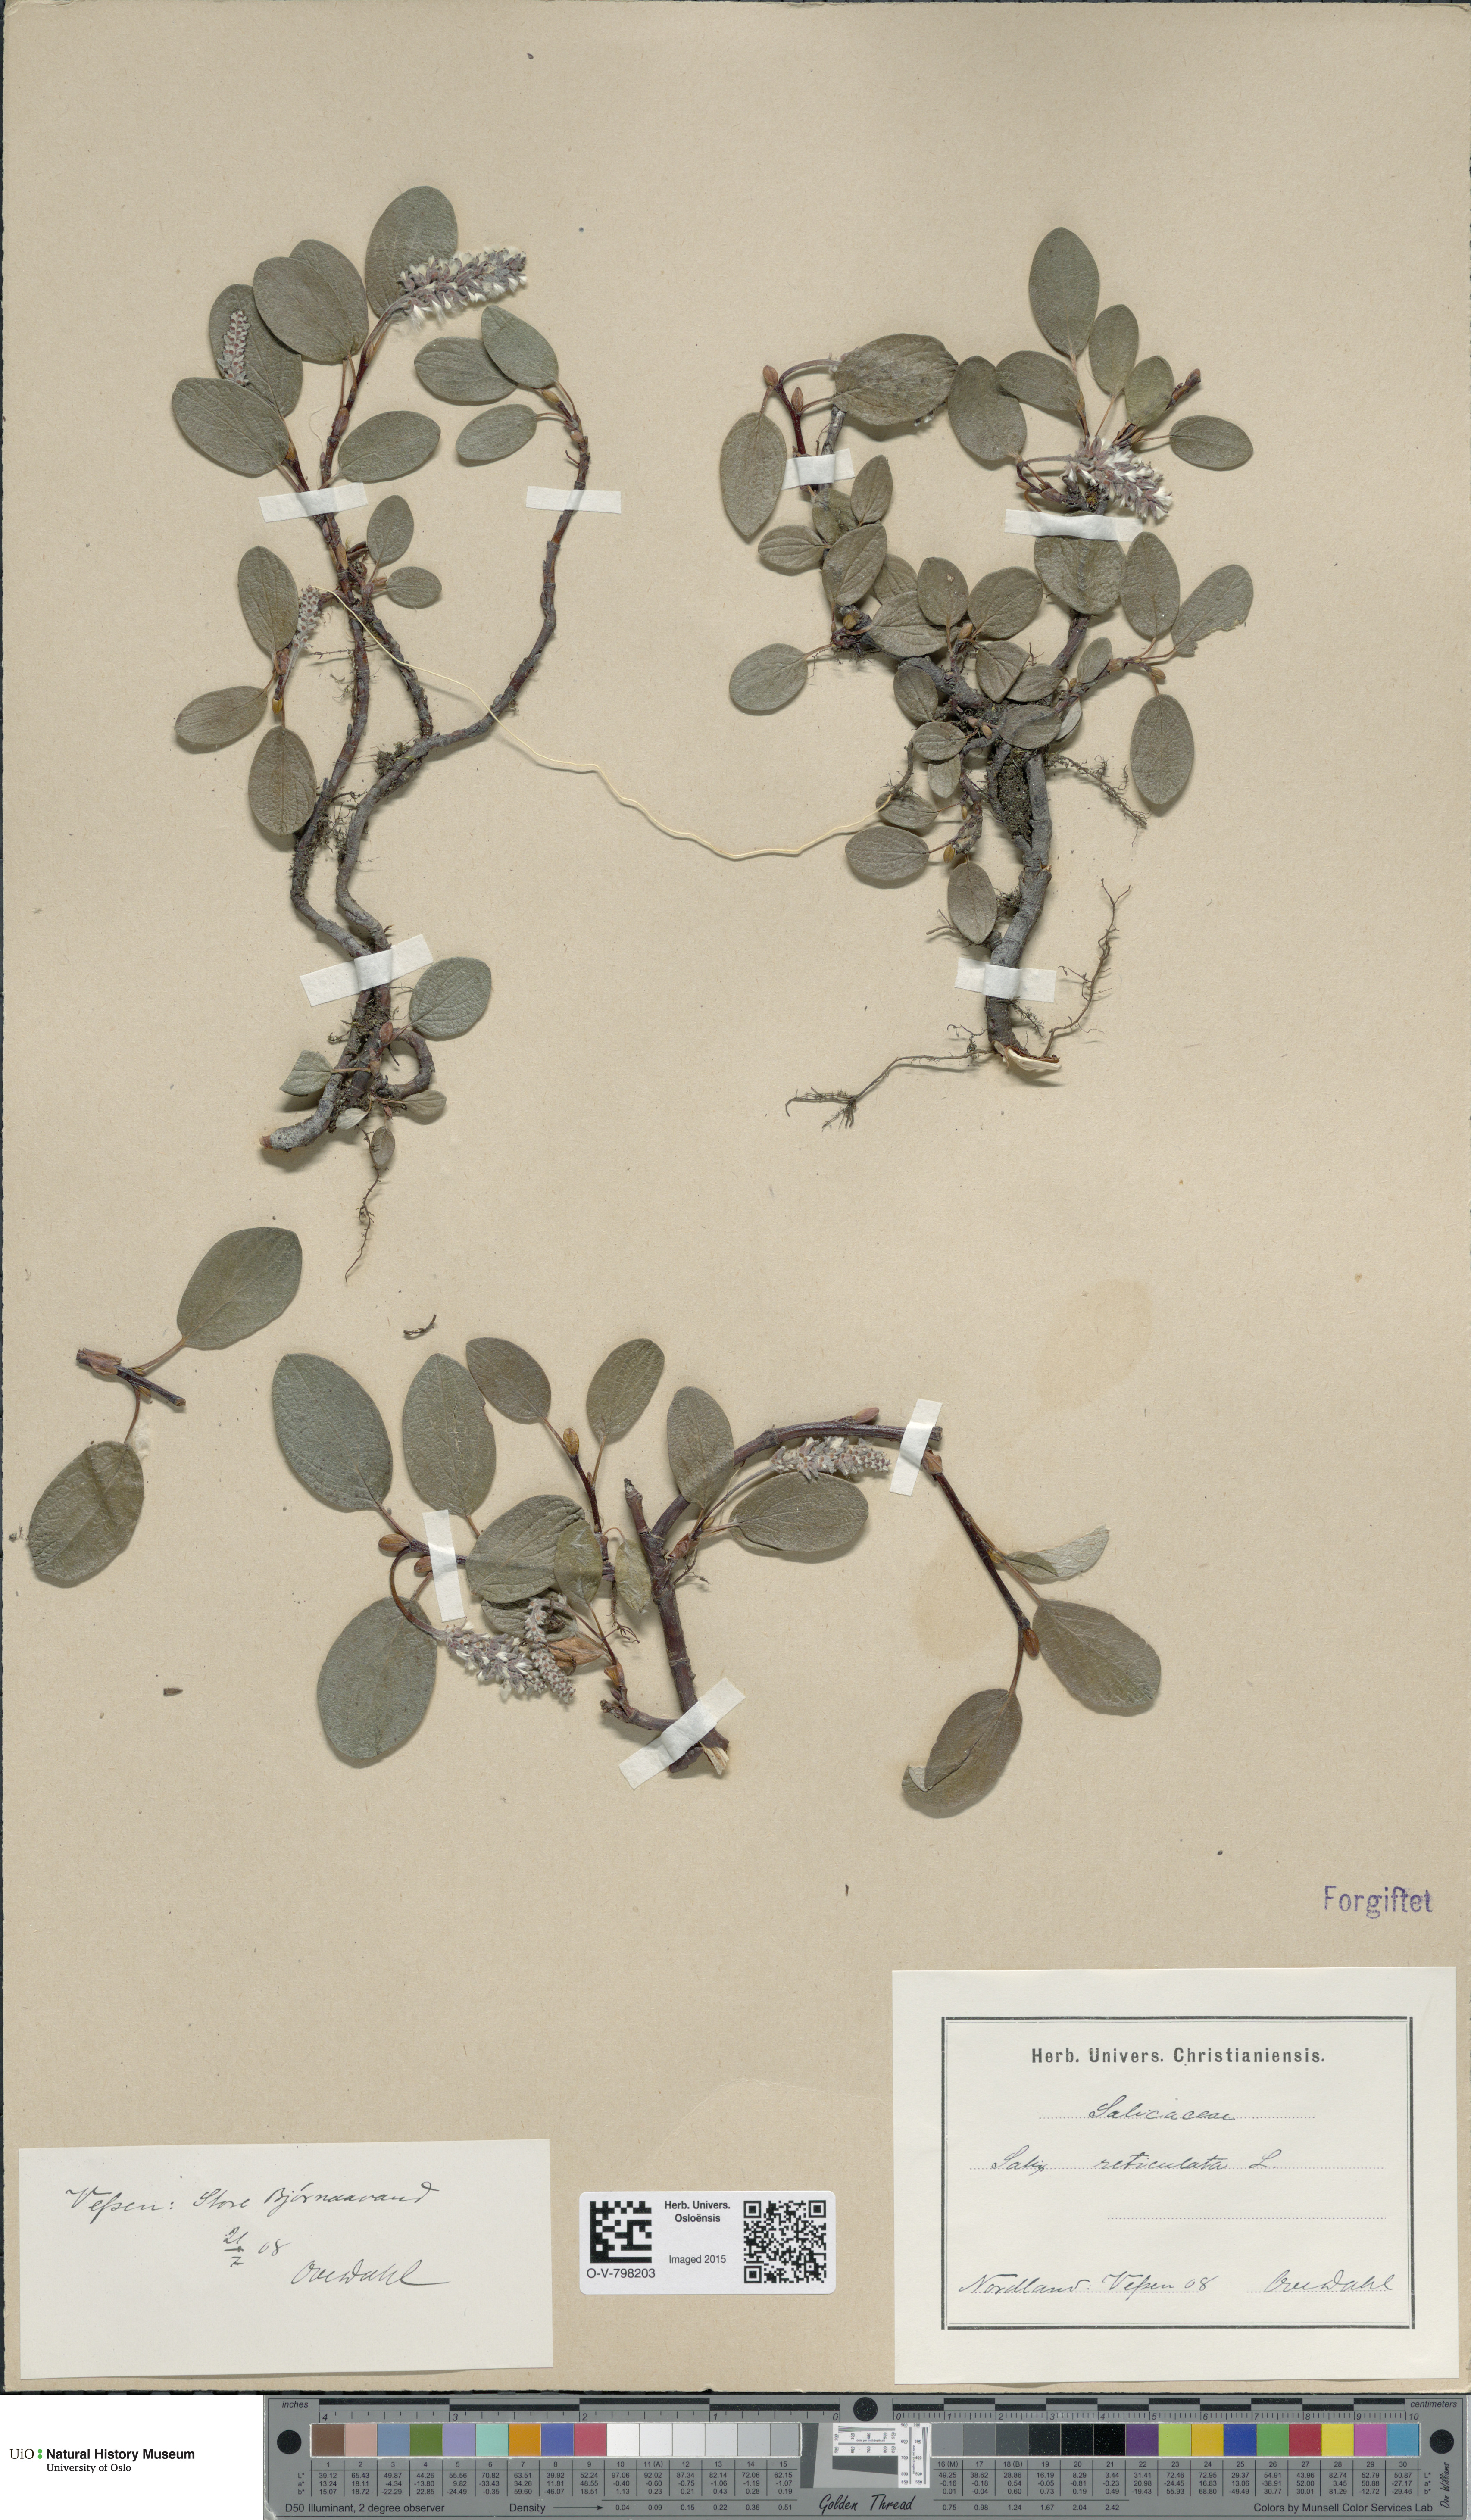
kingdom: Plantae
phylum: Tracheophyta
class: Magnoliopsida
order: Malpighiales
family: Salicaceae
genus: Salix
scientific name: Salix reticulata
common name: Net-leaved willow
